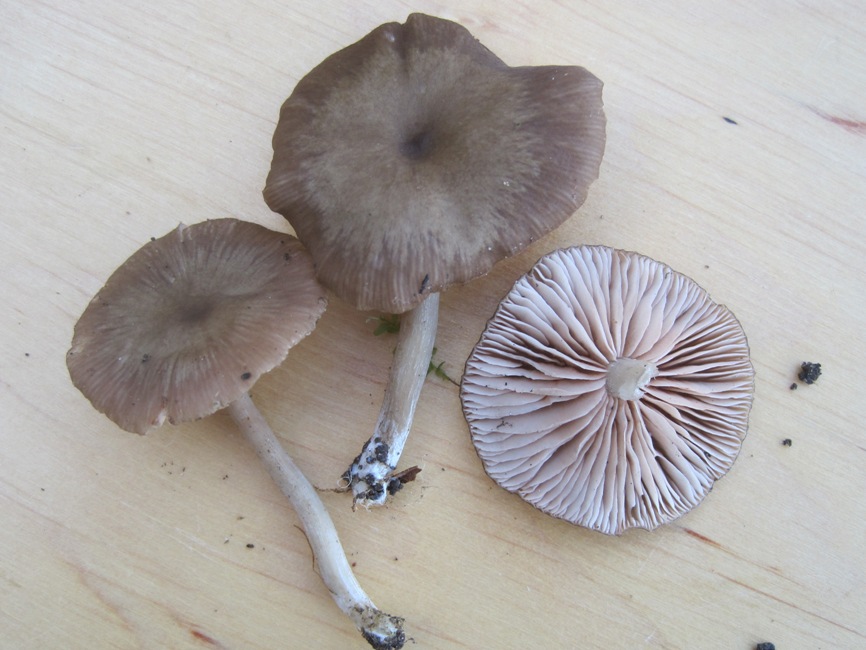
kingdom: Fungi
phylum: Basidiomycota
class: Agaricomycetes
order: Agaricales
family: Entolomataceae
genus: Entoloma
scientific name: Entoloma subradiatum
